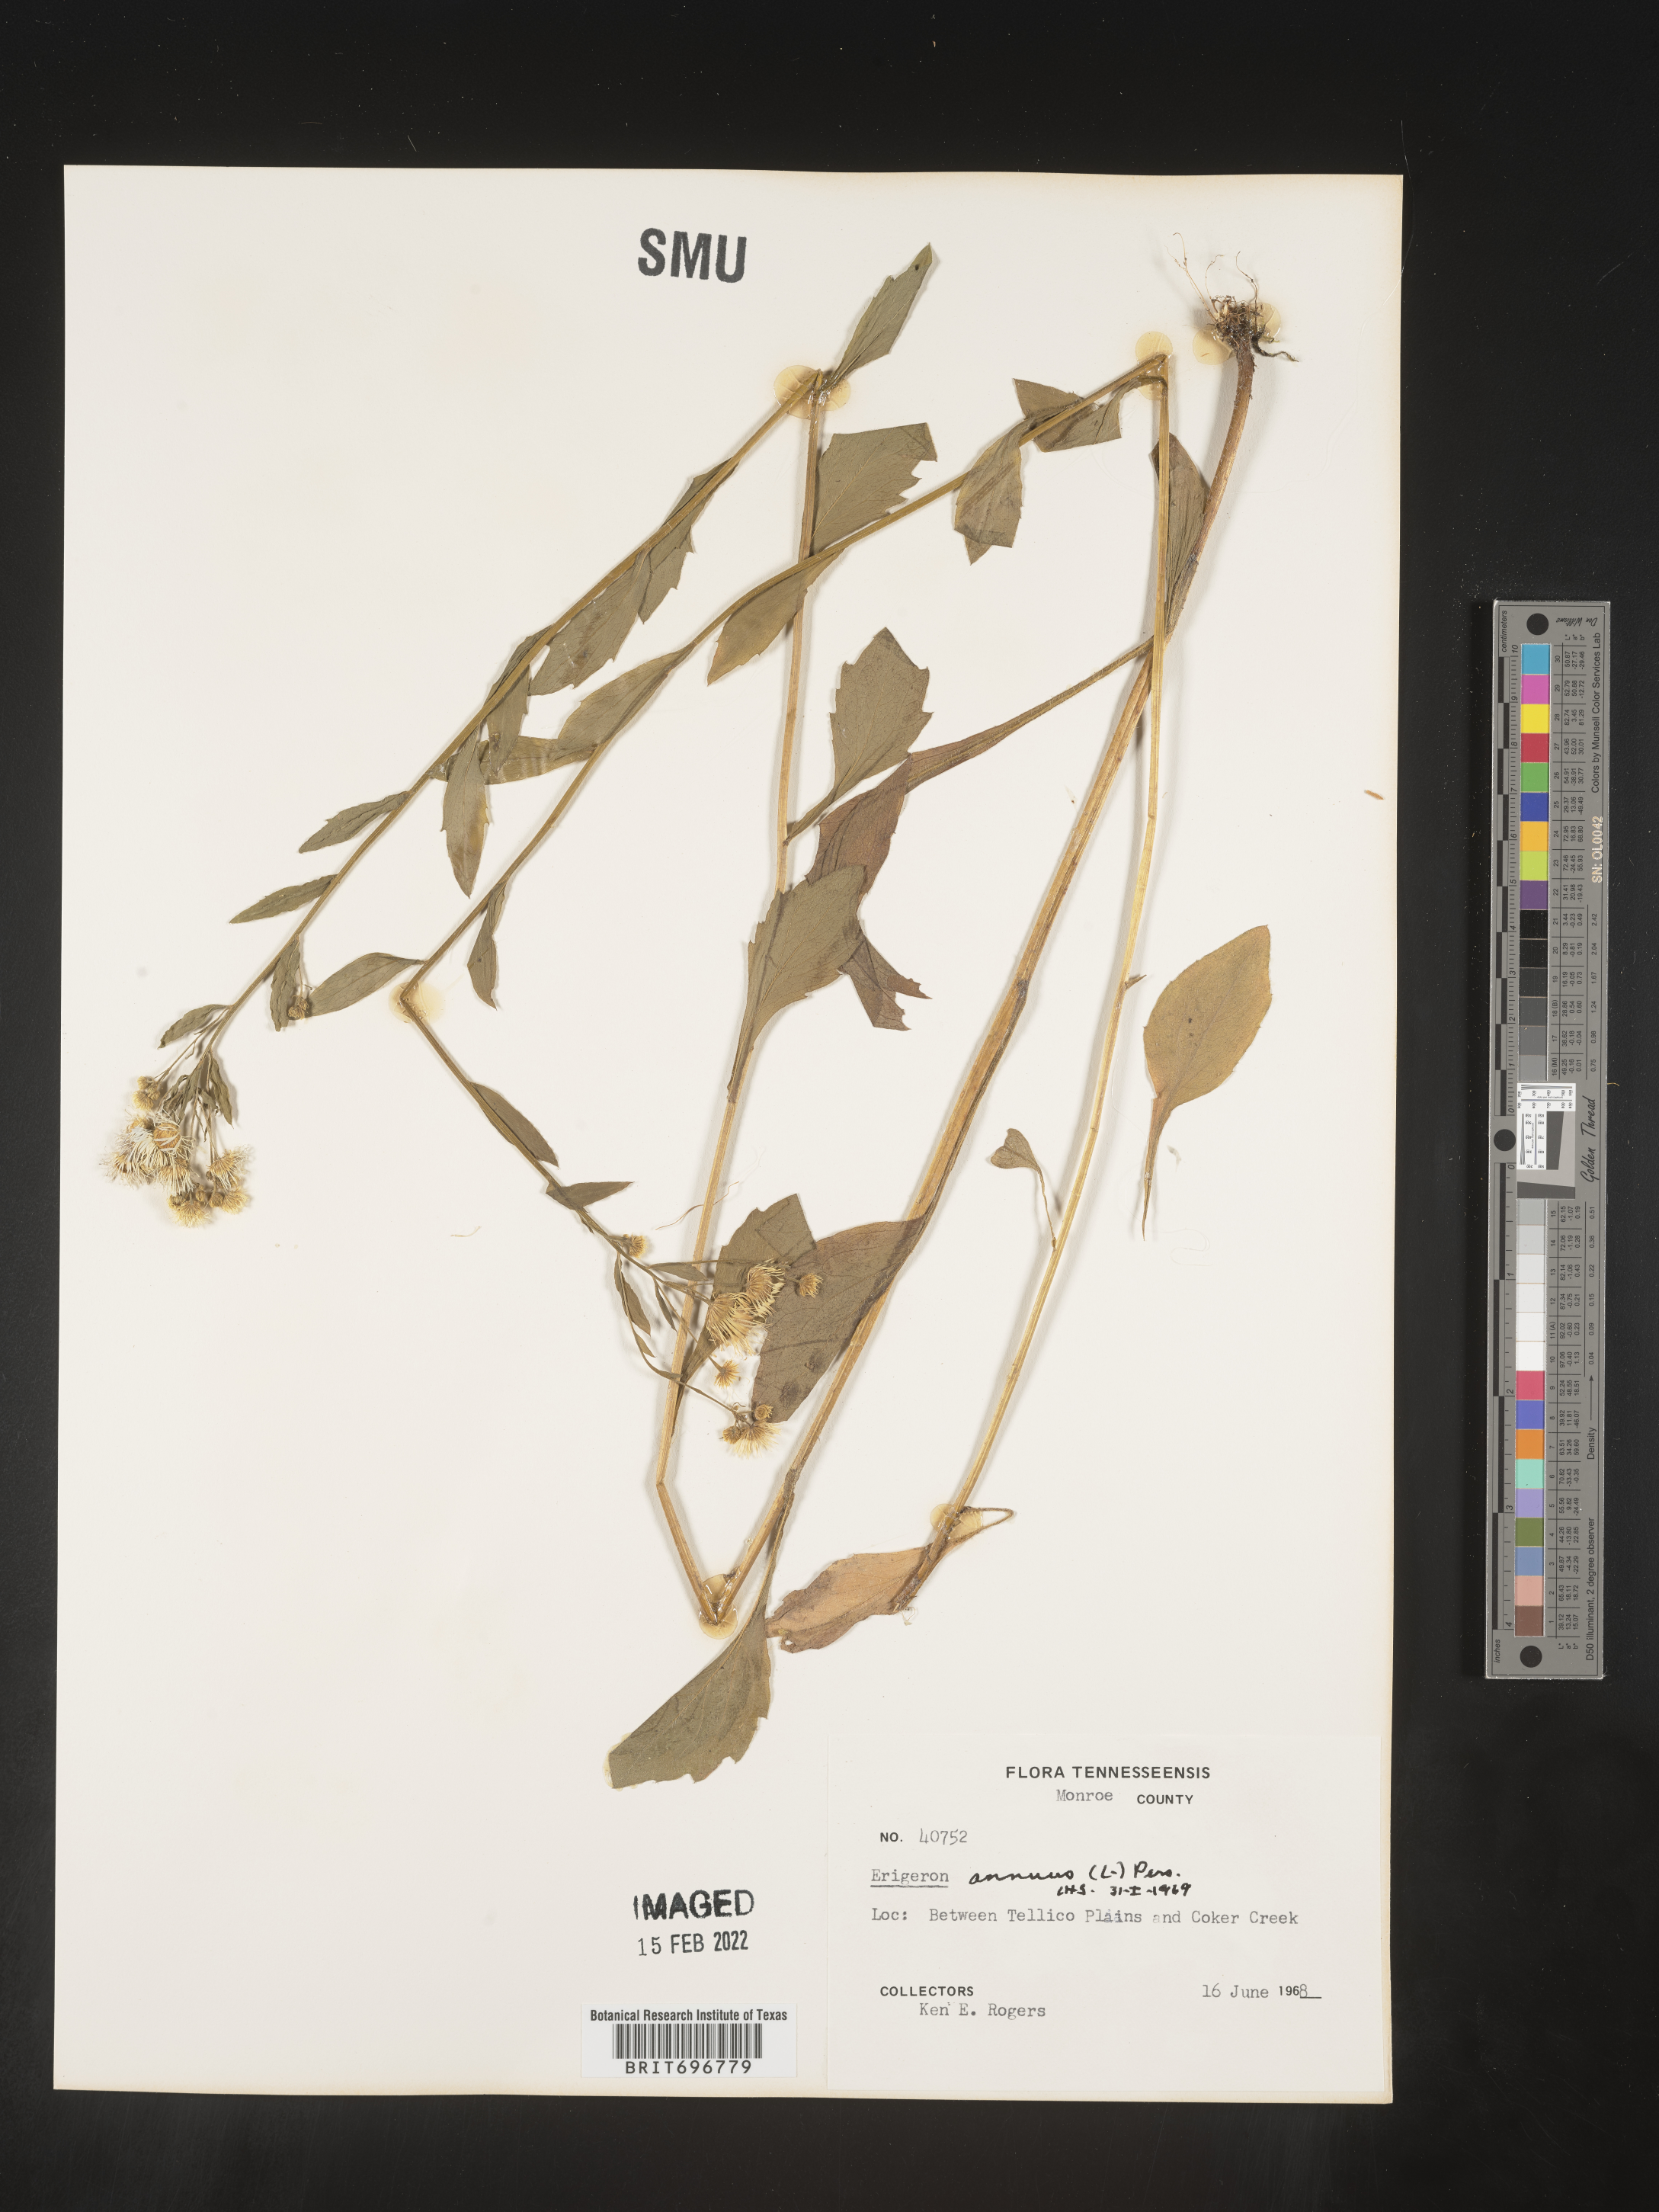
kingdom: Plantae
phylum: Tracheophyta
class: Magnoliopsida
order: Asterales
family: Asteraceae
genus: Erigeron
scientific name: Erigeron annuus
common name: Tall fleabane
